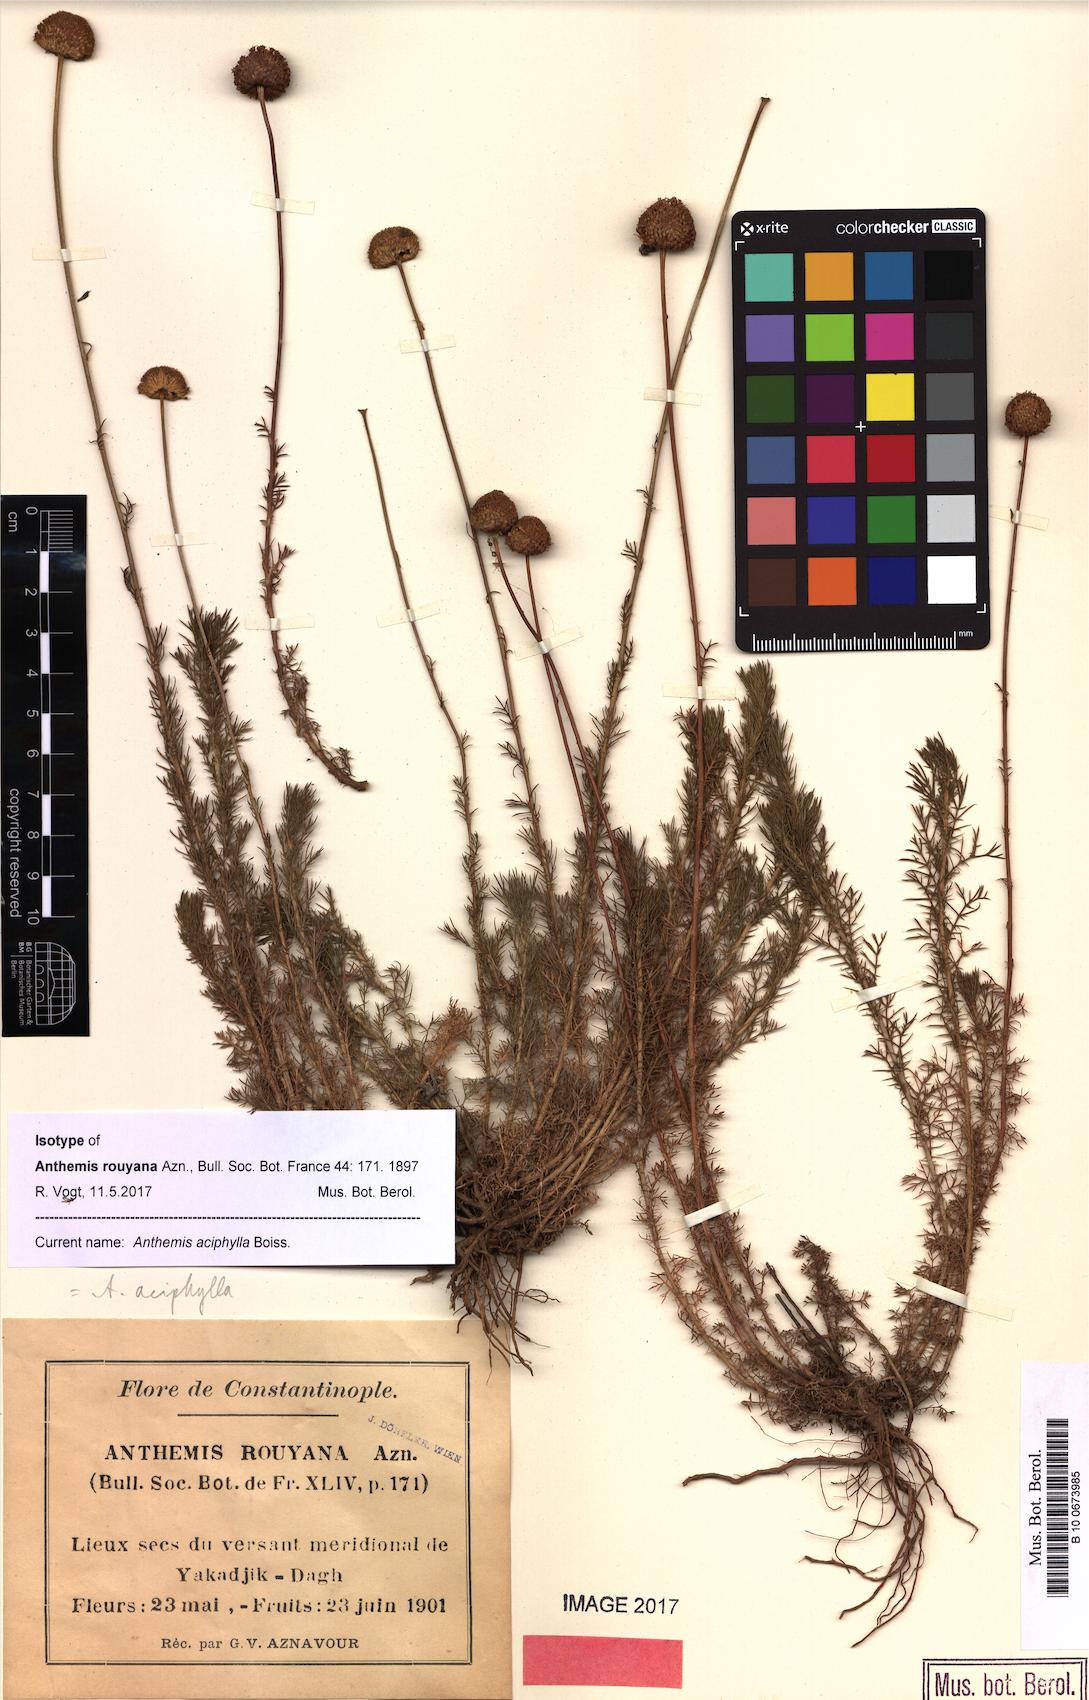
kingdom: Plantae
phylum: Tracheophyta
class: Magnoliopsida
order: Asterales
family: Asteraceae
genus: Anthemis
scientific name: Anthemis aciphylla
